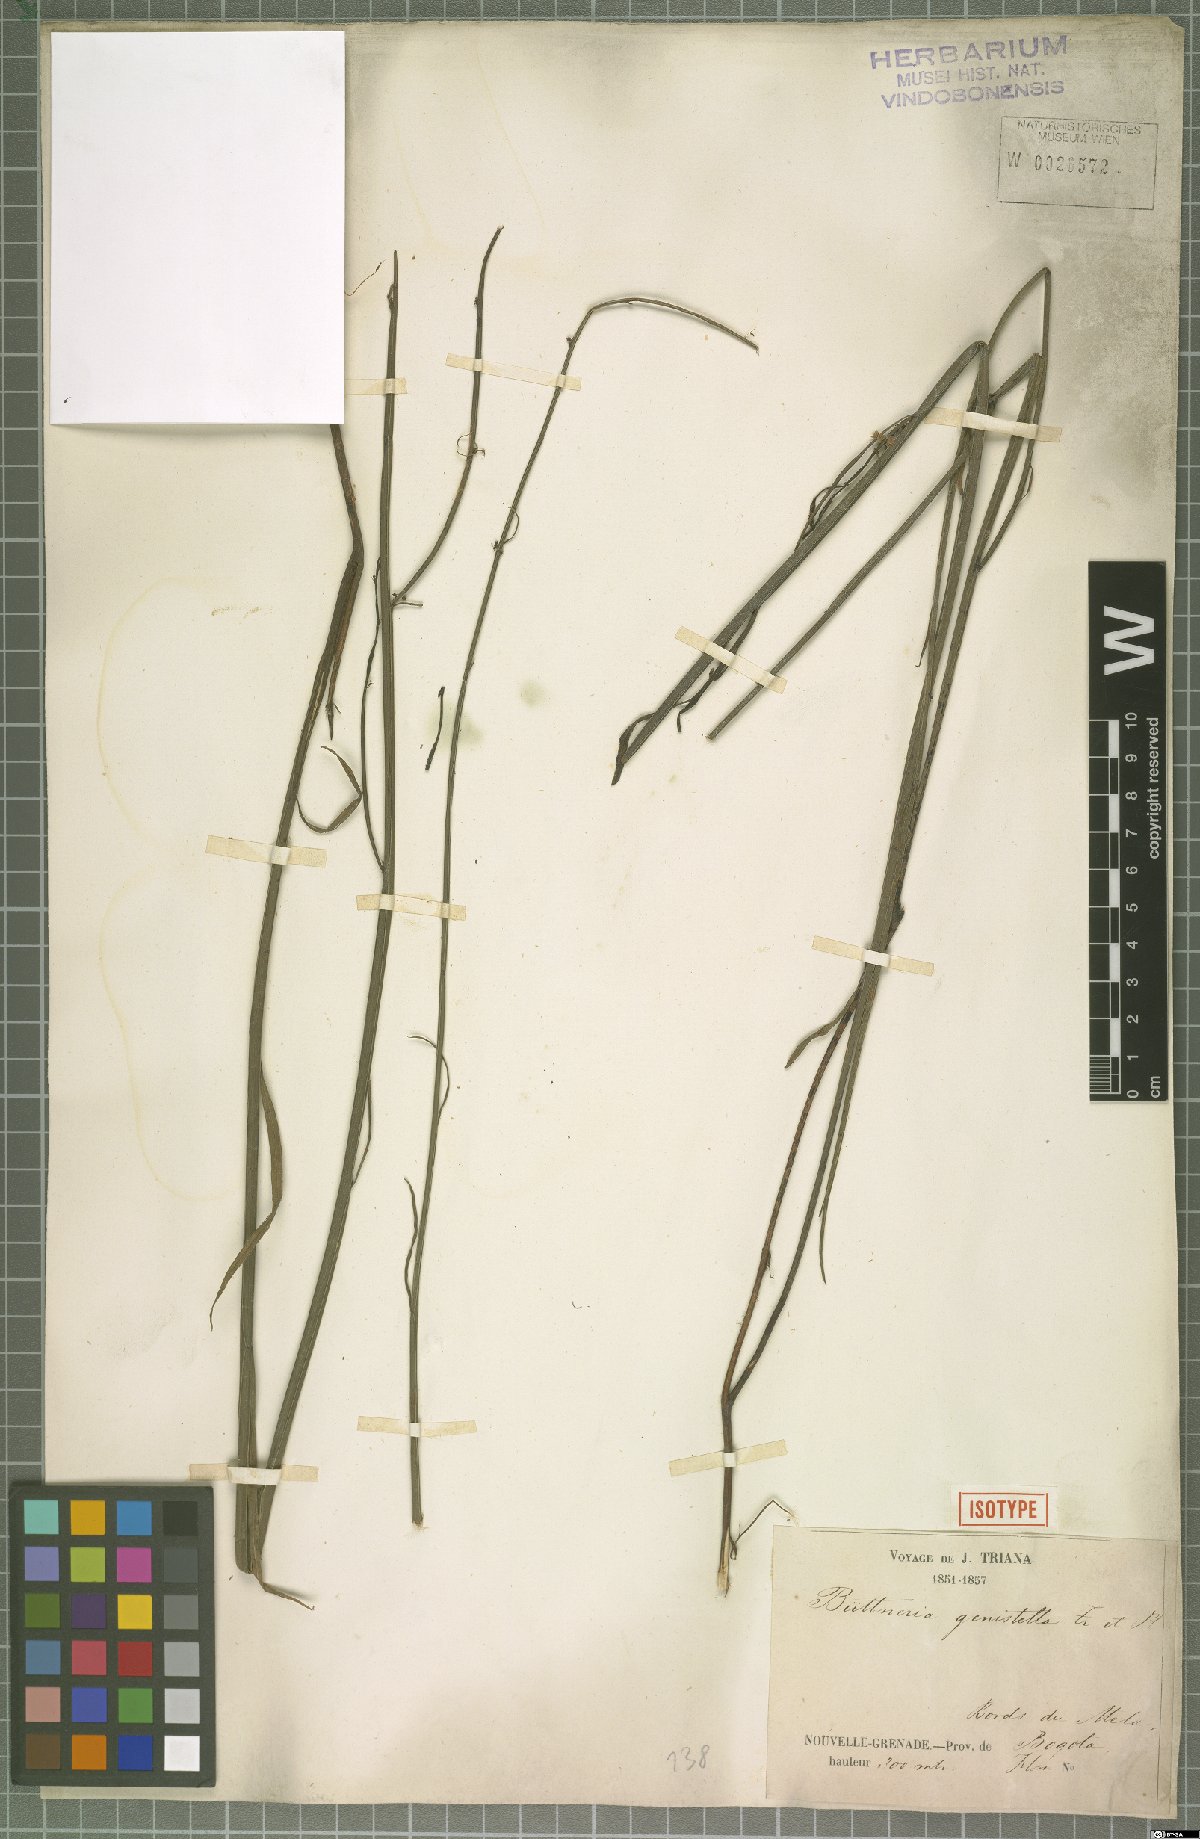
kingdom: Plantae
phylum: Tracheophyta
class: Magnoliopsida
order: Malvales
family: Malvaceae
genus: Byttneria
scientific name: Byttneria genistella
